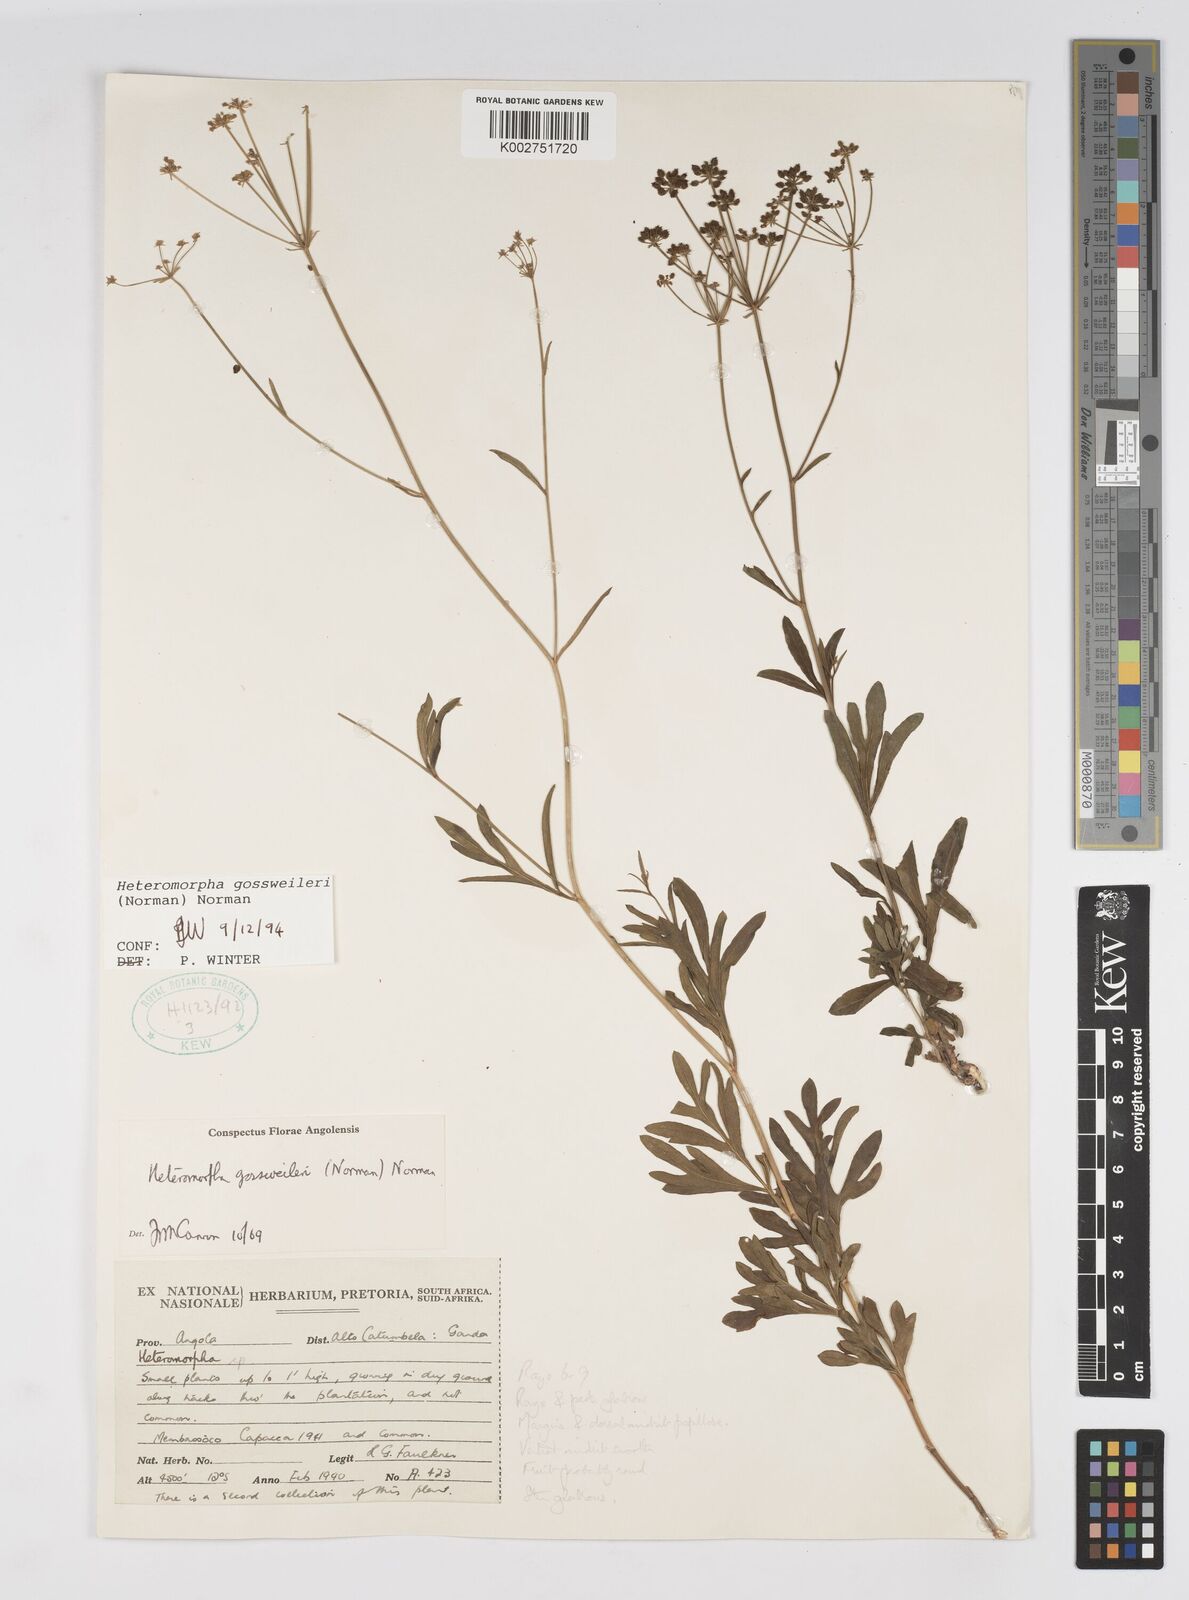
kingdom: Plantae
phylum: Tracheophyta
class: Magnoliopsida
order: Apiales
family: Apiaceae
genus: Heteromorpha
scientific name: Heteromorpha gossweileri
